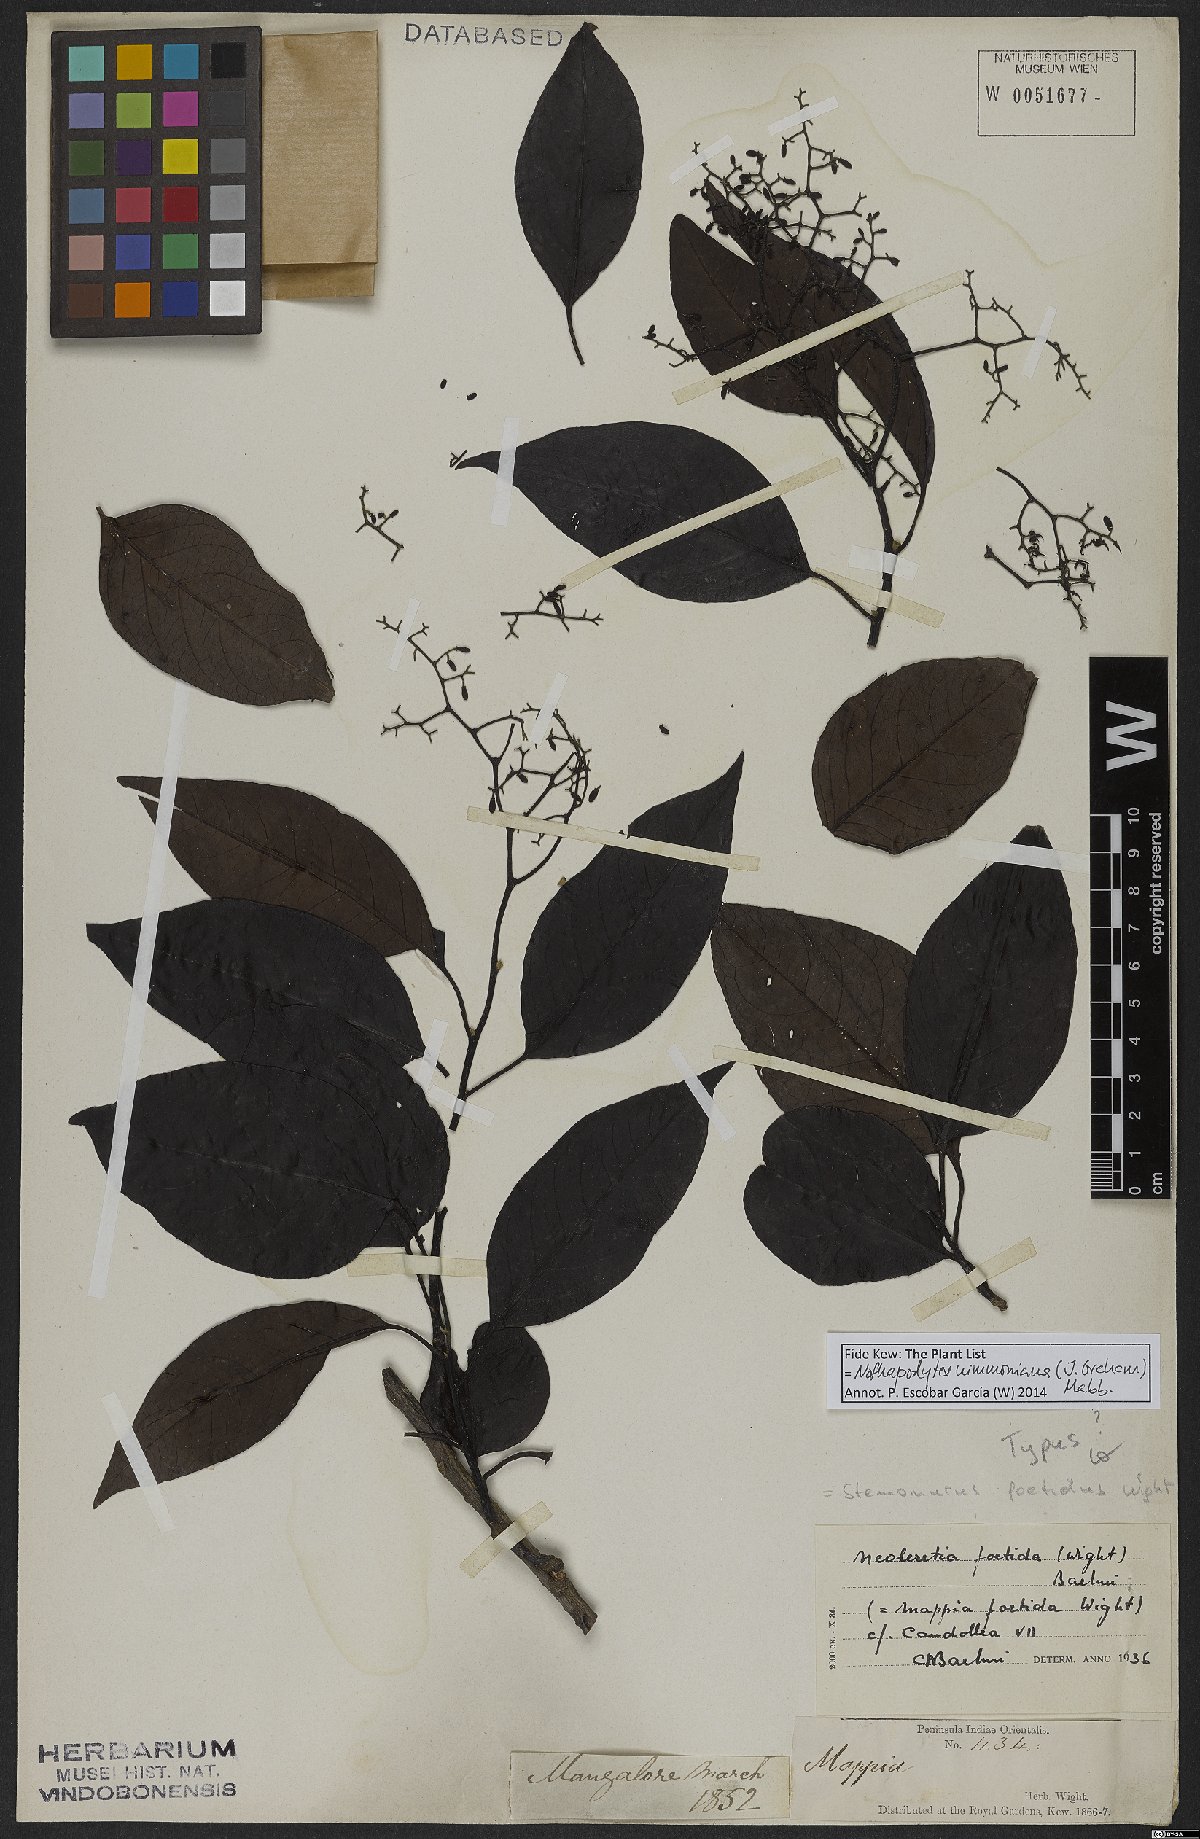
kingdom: Plantae
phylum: Tracheophyta
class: Magnoliopsida
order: Icacinales
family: Icacinaceae
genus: Nothapodytes
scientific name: Nothapodytes nimmoniana
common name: Nothapodytes
